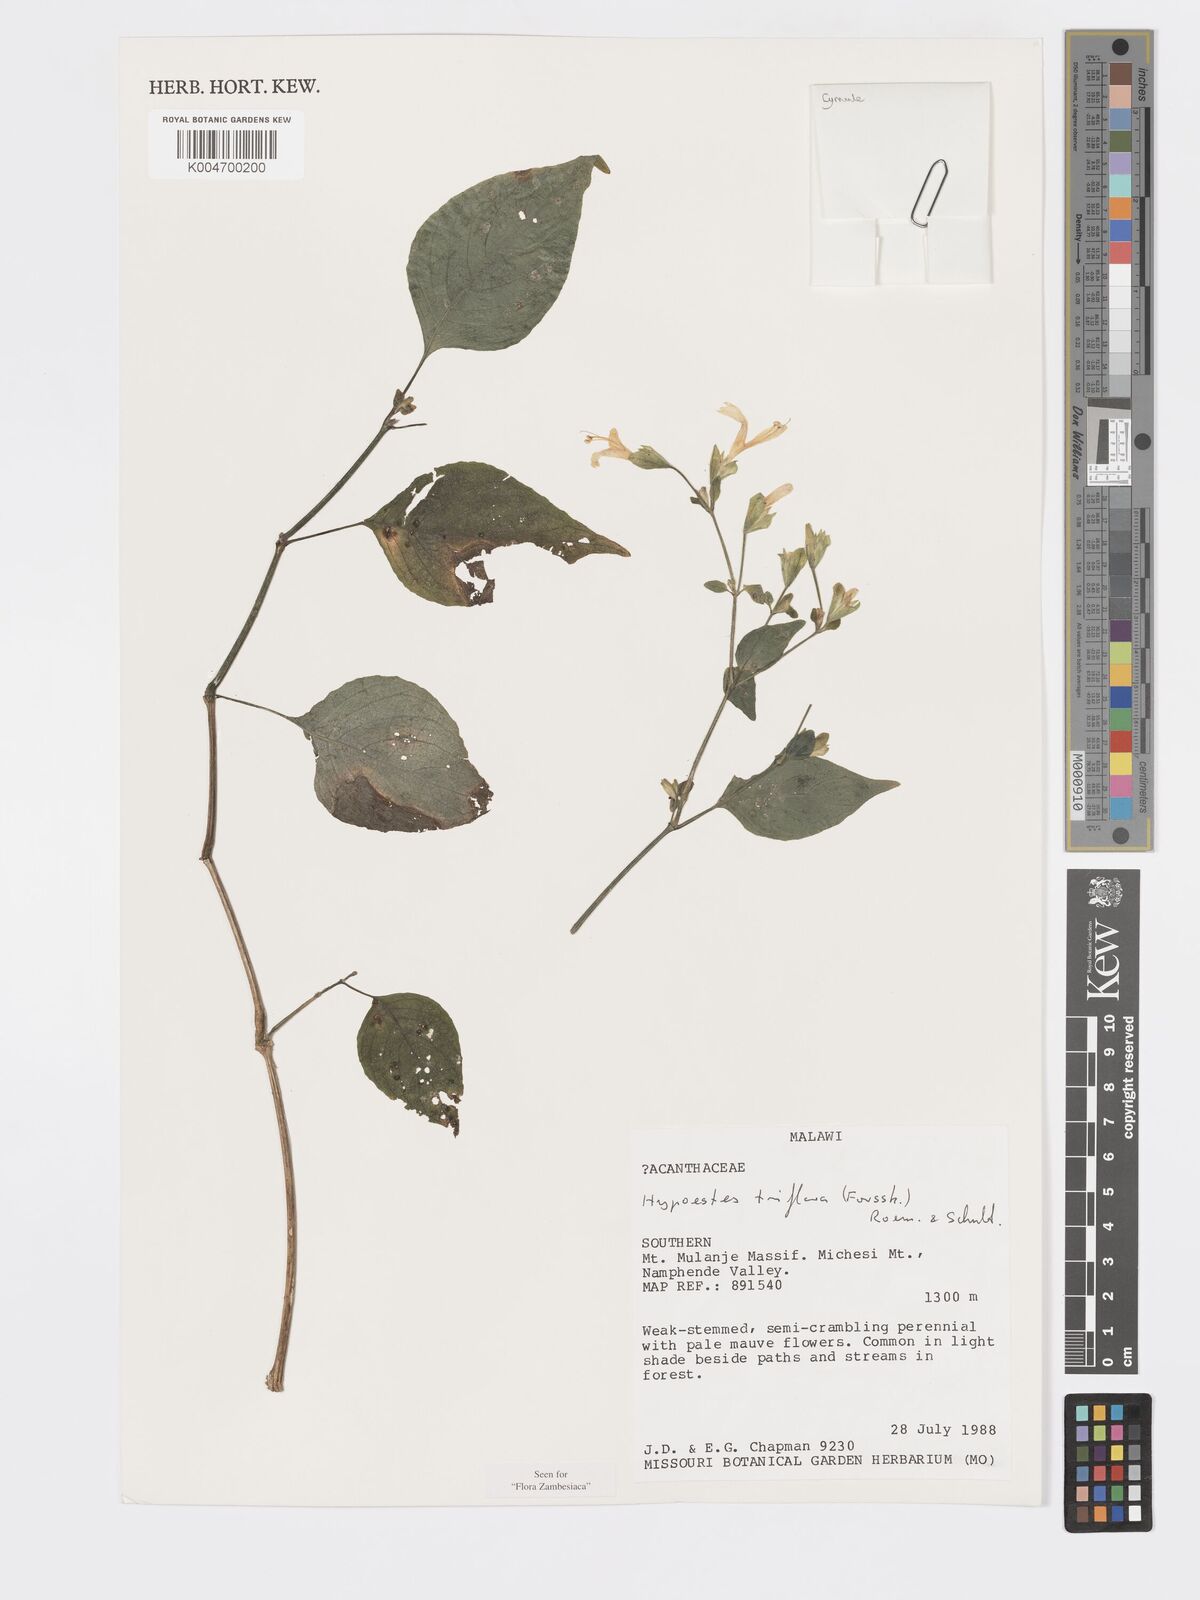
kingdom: Plantae
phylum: Tracheophyta
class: Magnoliopsida
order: Lamiales
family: Acanthaceae
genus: Hypoestes
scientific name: Hypoestes triflora
